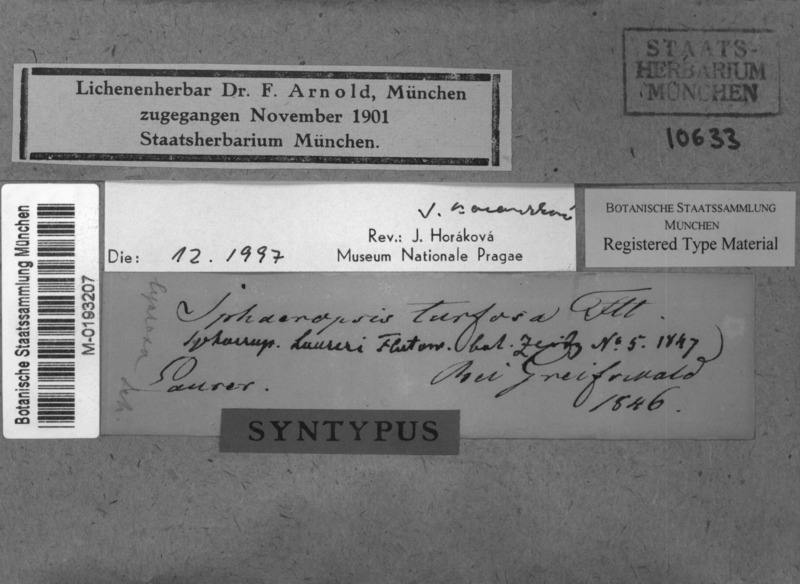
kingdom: Fungi
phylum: Ascomycota
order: Thelocarpales
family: Thelocarpaceae
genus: Thelocarpon
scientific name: Thelocarpon laureri
